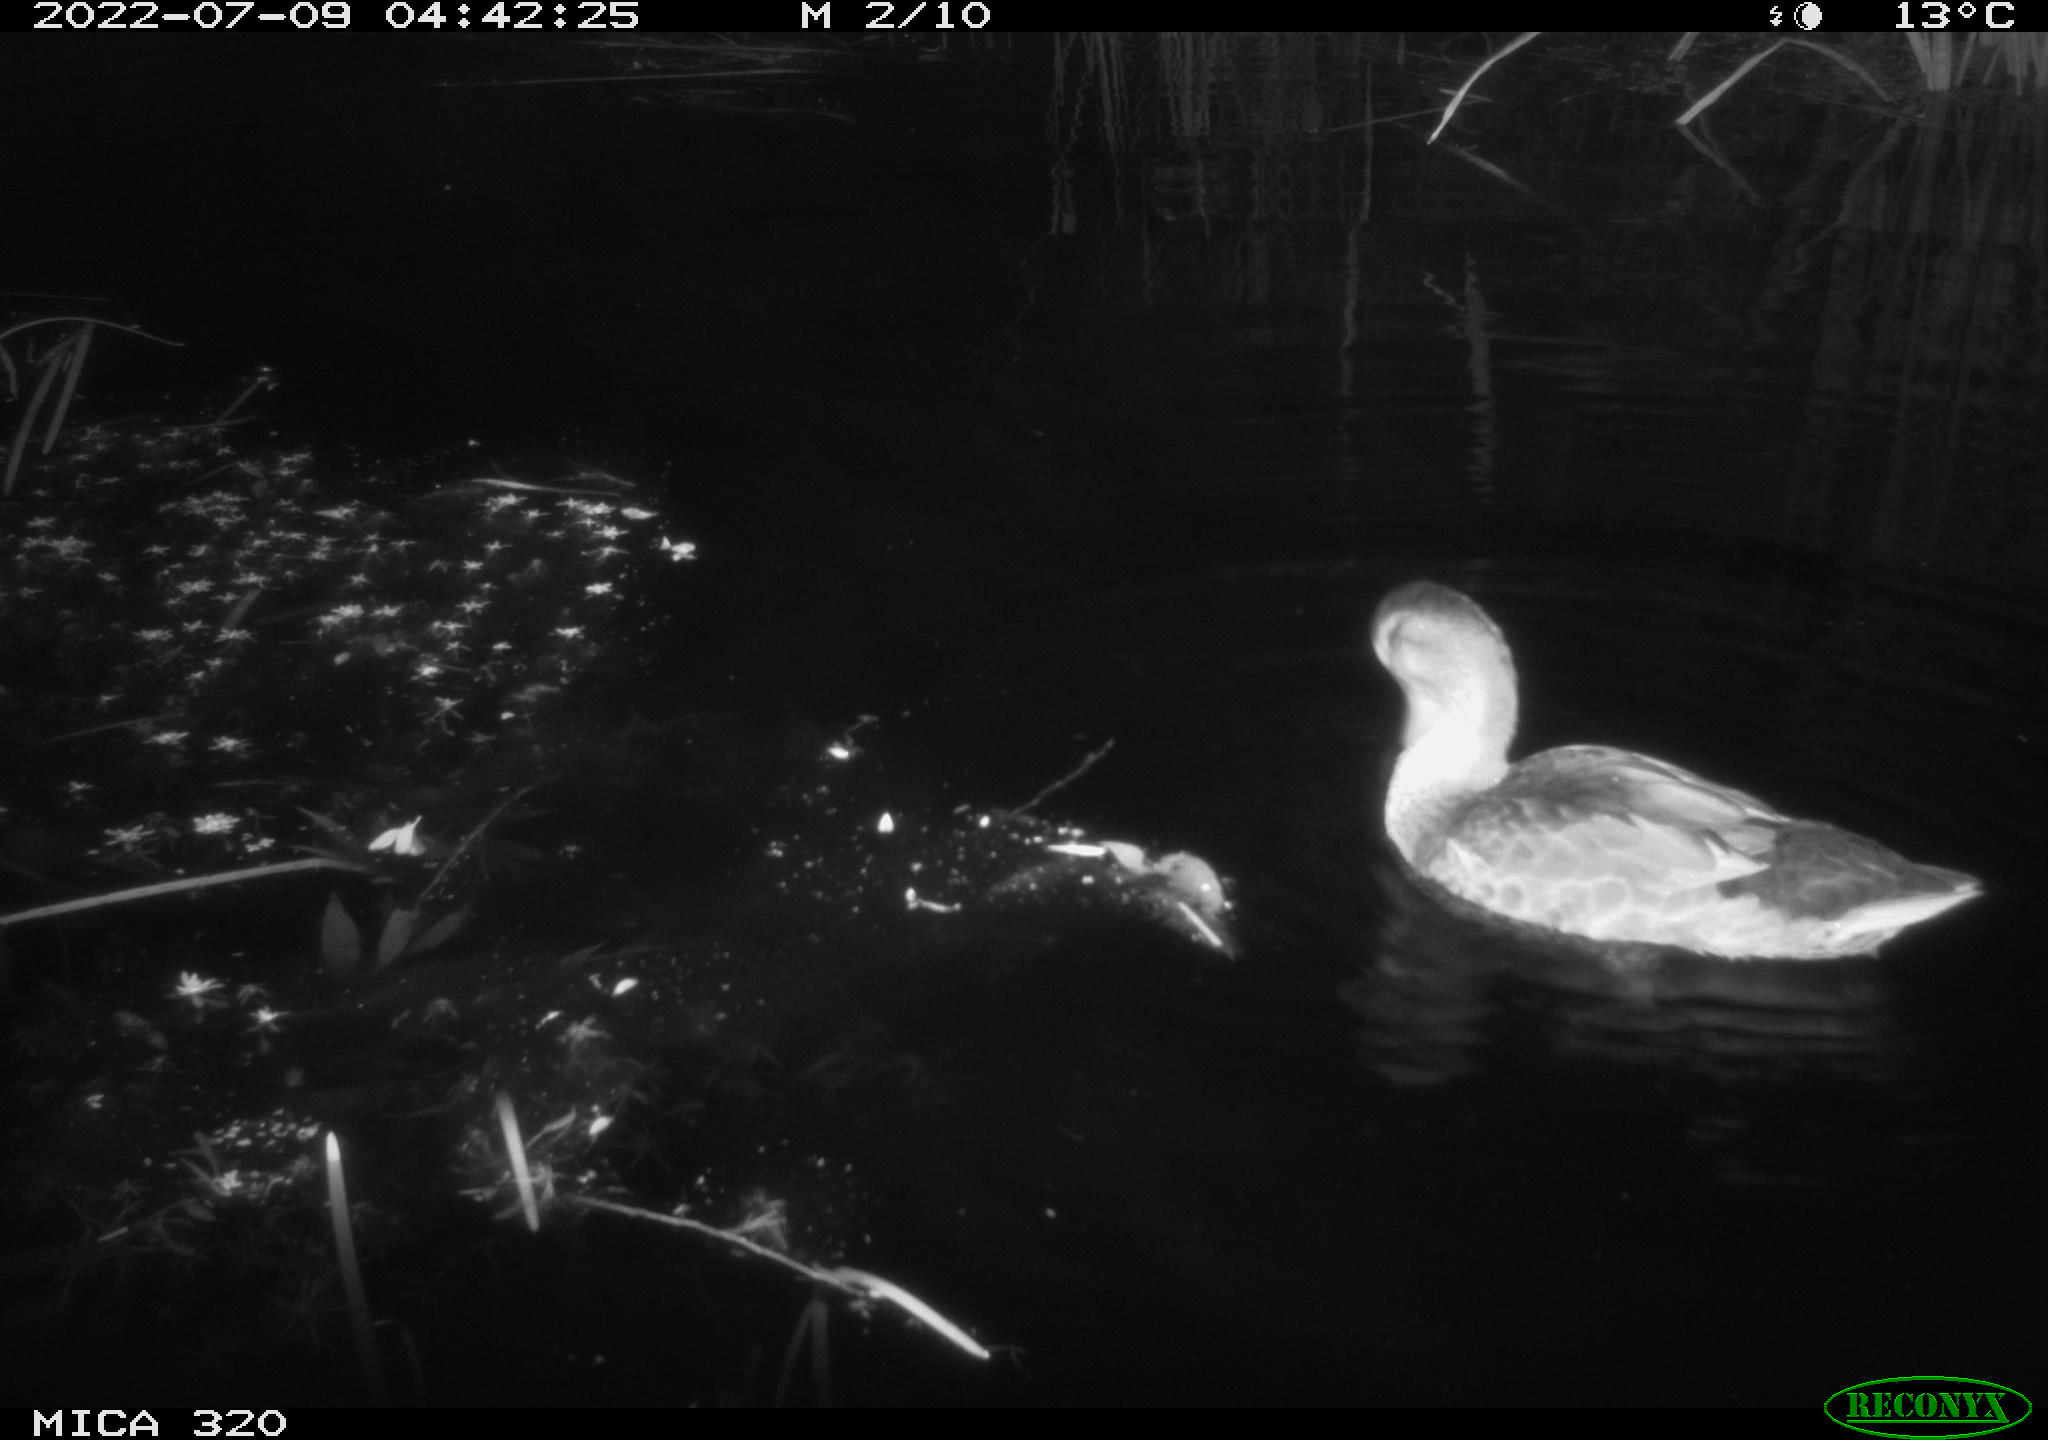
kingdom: Animalia
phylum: Chordata
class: Aves
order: Anseriformes
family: Anatidae
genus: Mareca
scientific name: Mareca strepera
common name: Gadwall
